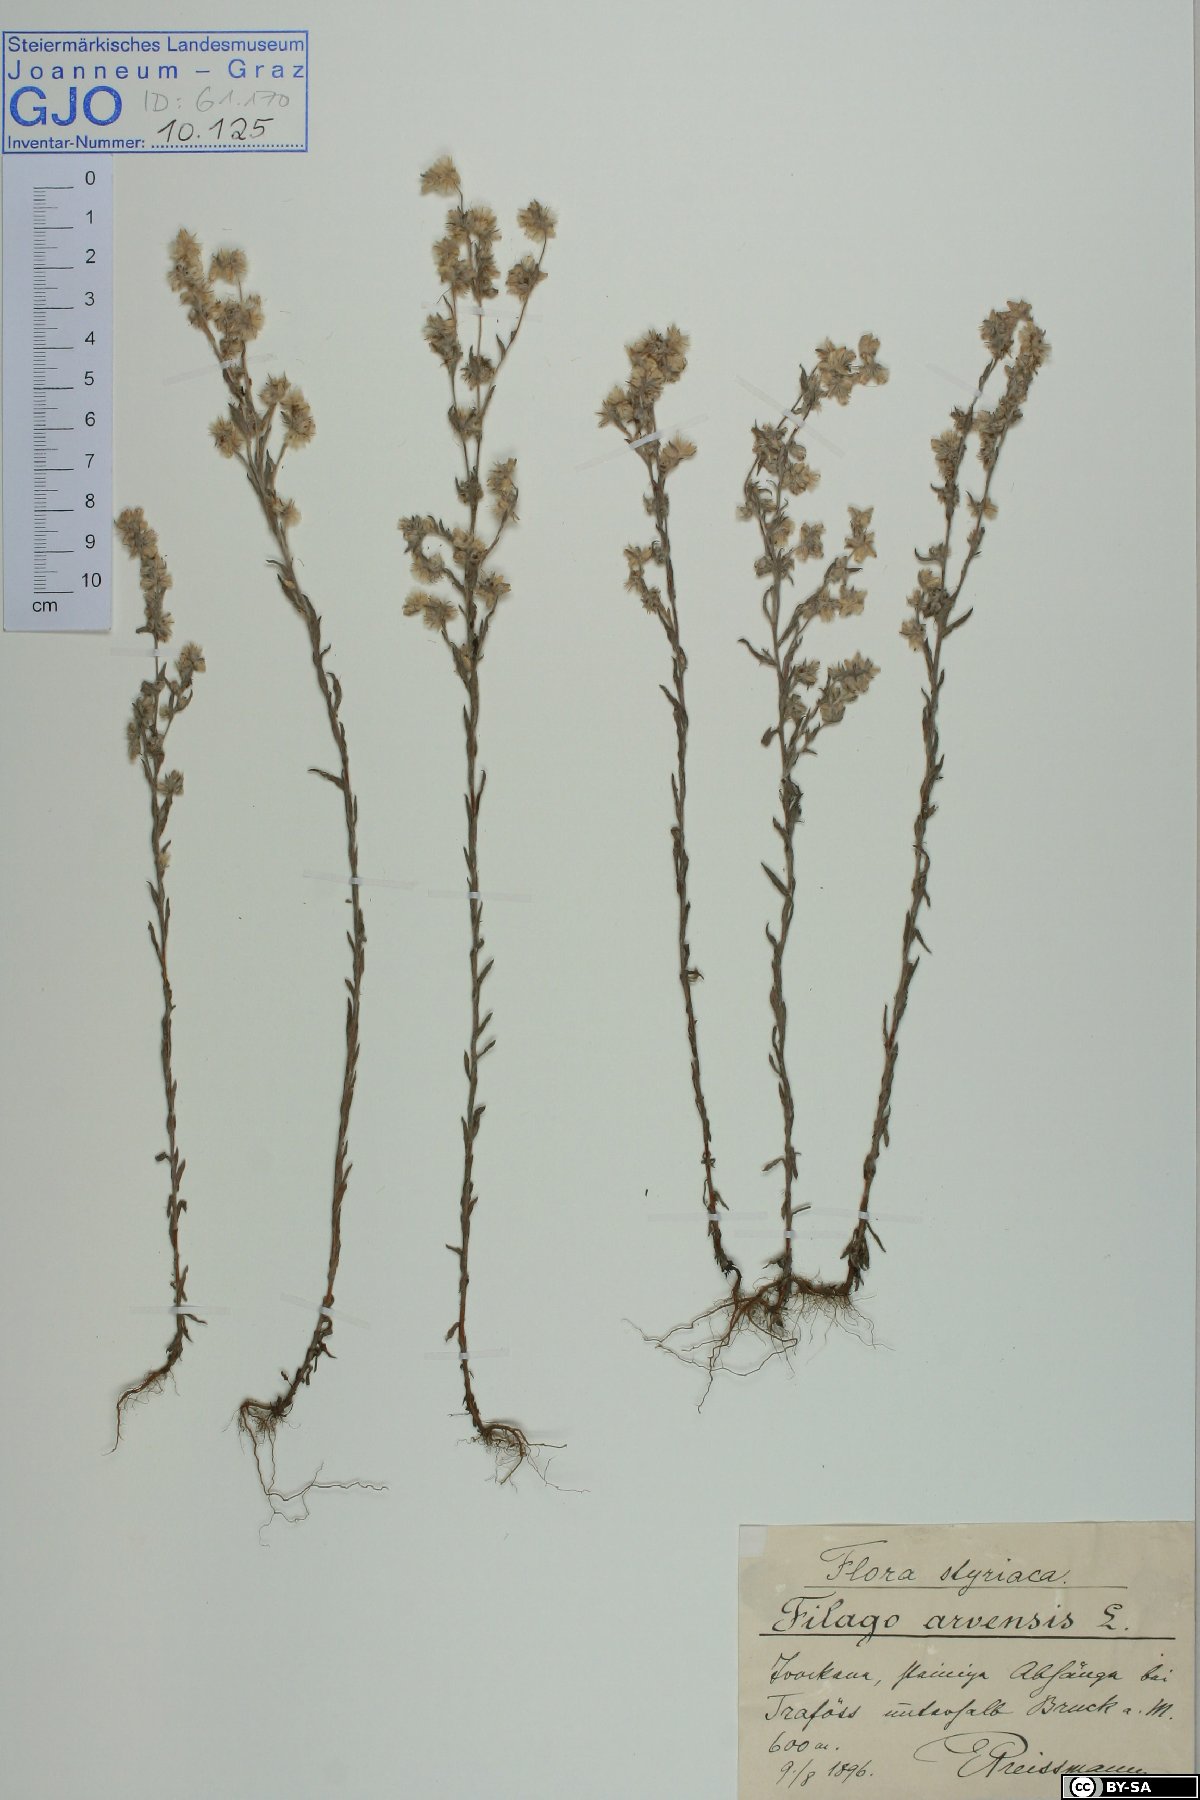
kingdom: Plantae
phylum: Tracheophyta
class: Magnoliopsida
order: Asterales
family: Asteraceae
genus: Filago
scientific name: Filago arvensis
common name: Field cudweed
